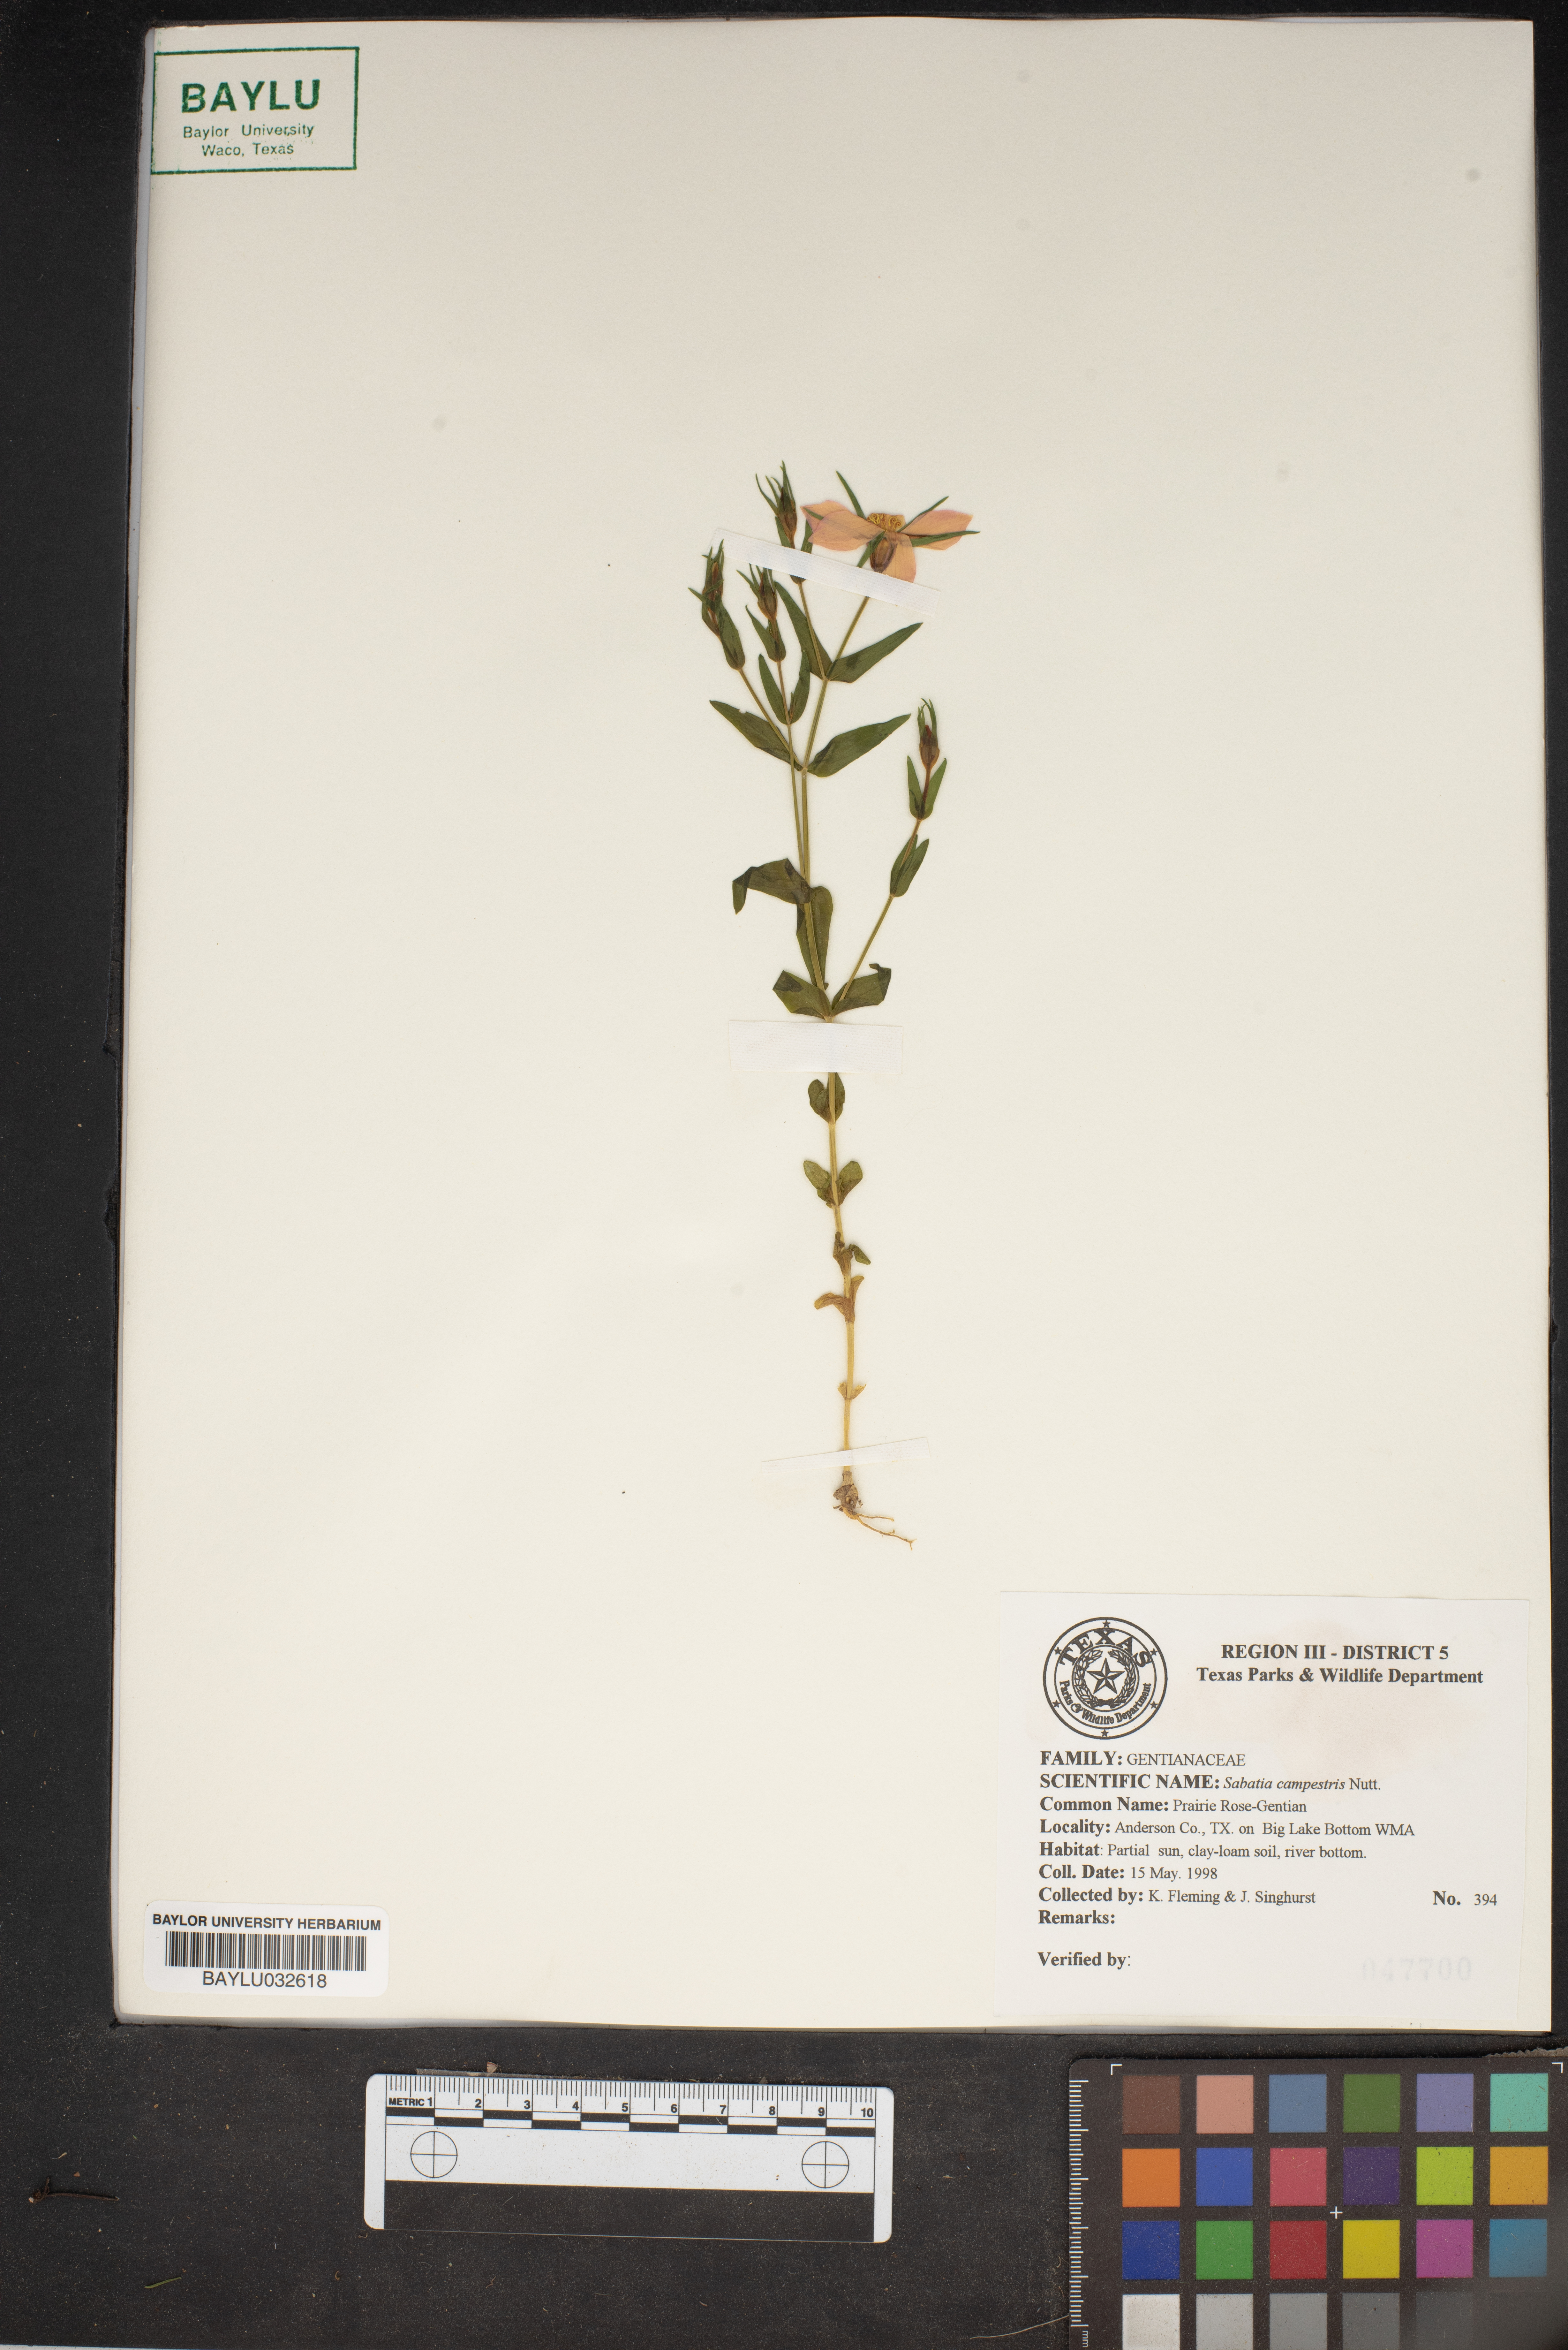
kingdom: Plantae
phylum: Tracheophyta
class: Magnoliopsida
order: Gentianales
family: Gentianaceae
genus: Sabatia
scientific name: Sabatia campestris
